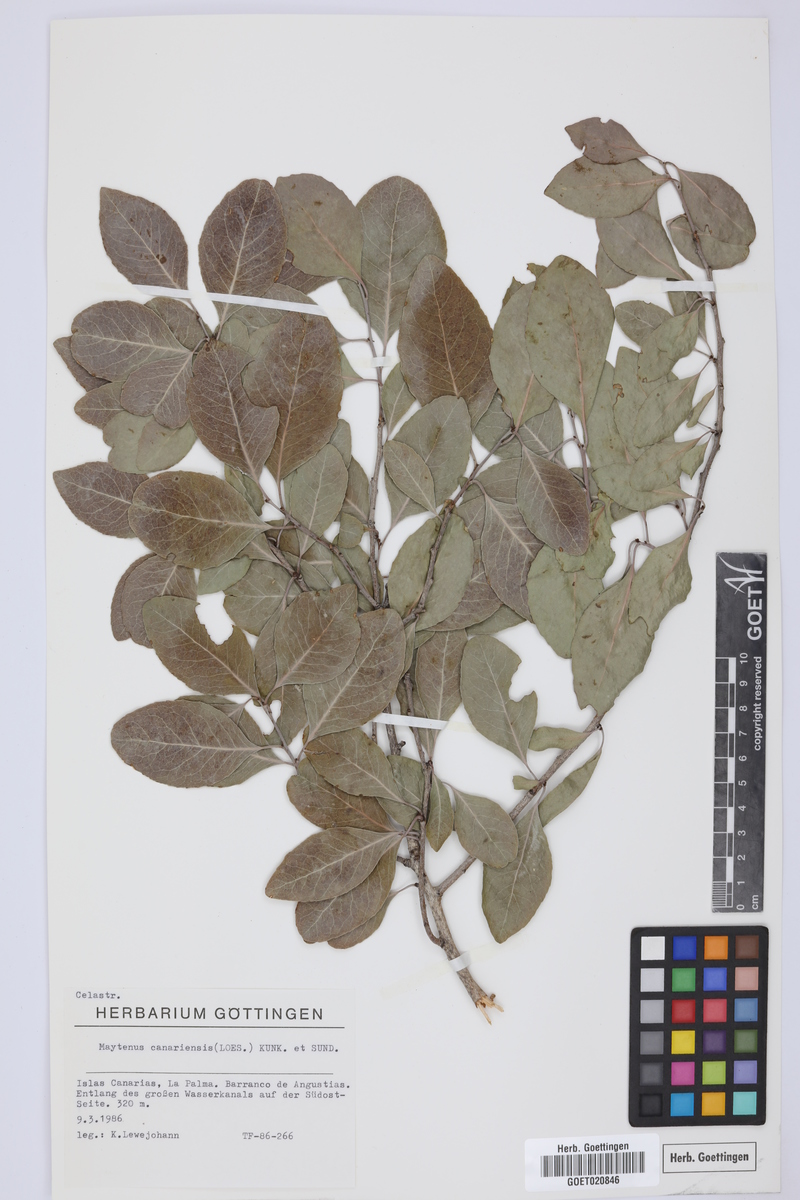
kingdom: Plantae
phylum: Tracheophyta
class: Magnoliopsida
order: Celastrales
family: Celastraceae
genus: Gymnosporia
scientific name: Gymnosporia cassinoides
